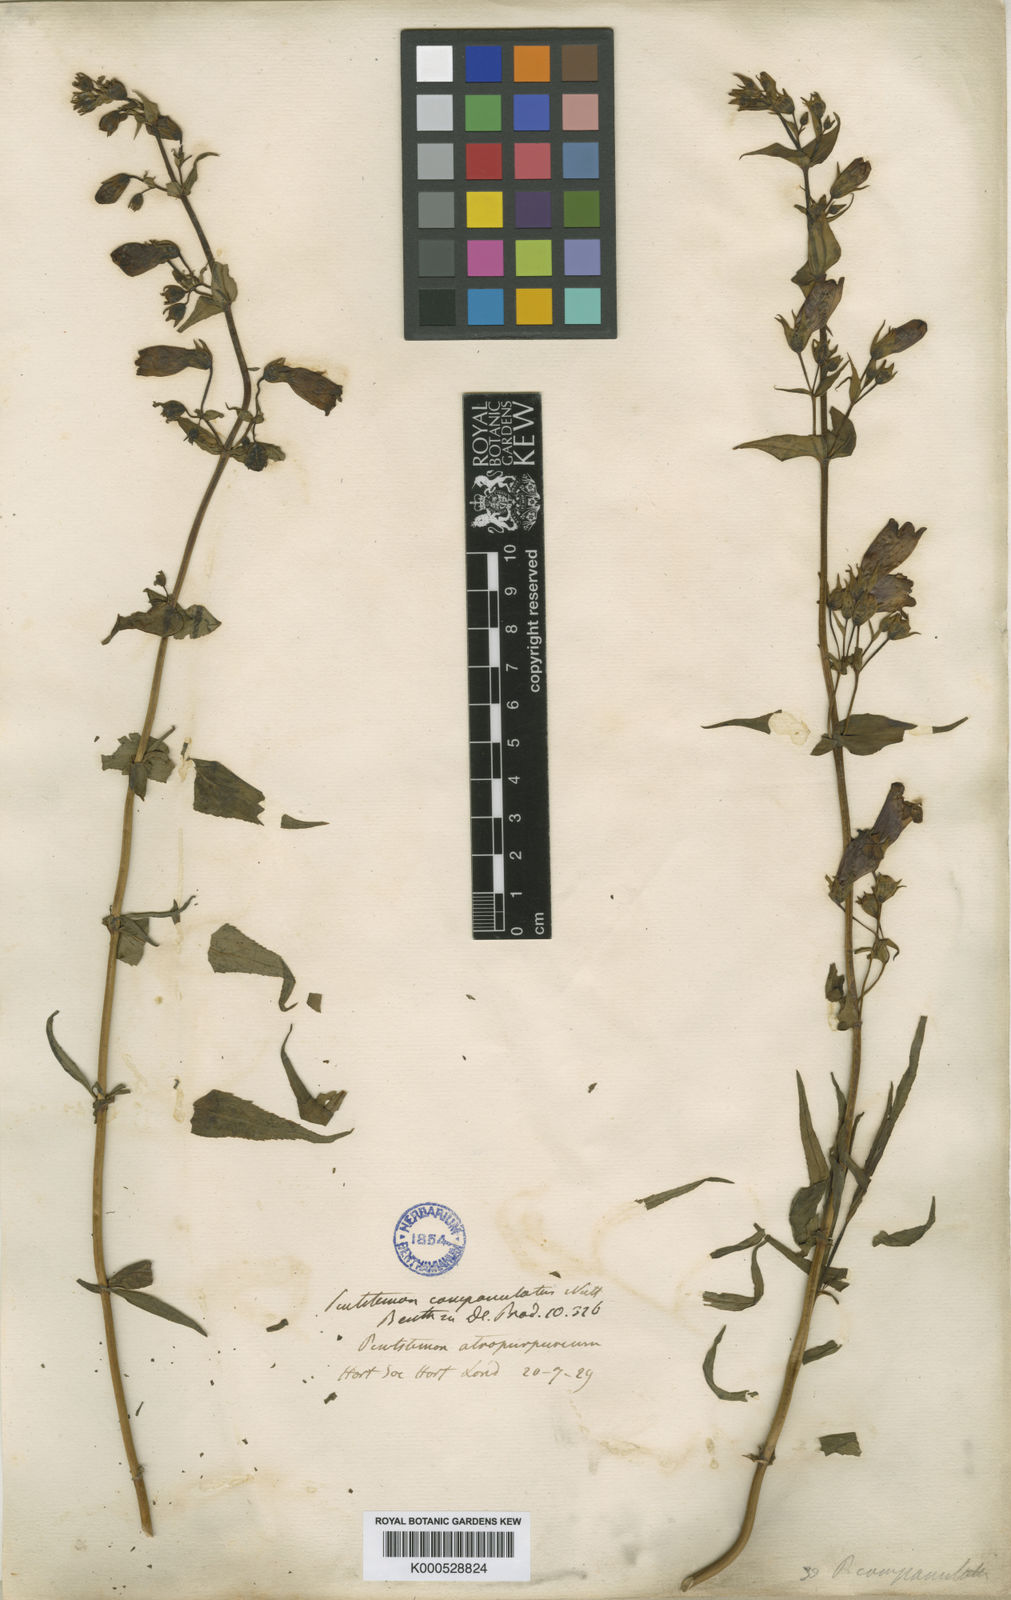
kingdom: Plantae
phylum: Tracheophyta
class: Magnoliopsida
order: Lamiales
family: Plantaginaceae
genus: Penstemon
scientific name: Penstemon atropurpureus
